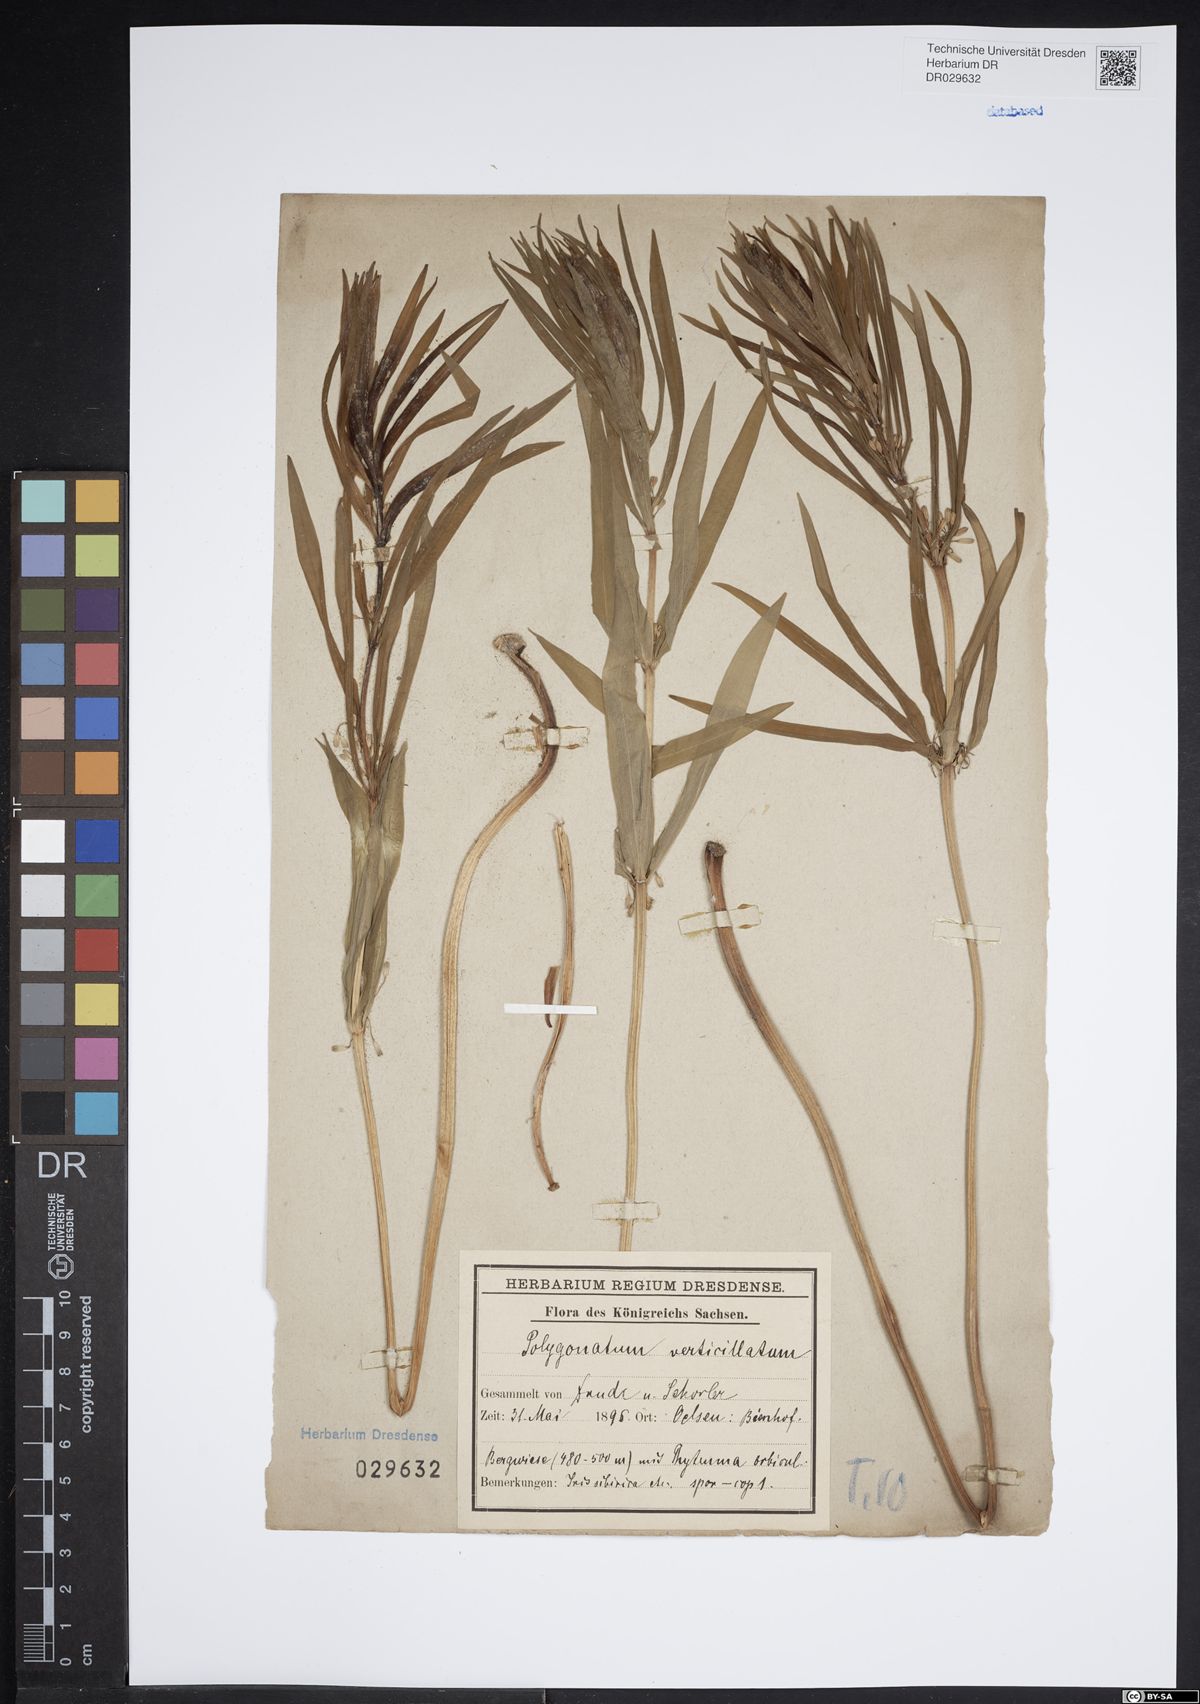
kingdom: Plantae
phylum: Tracheophyta
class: Liliopsida
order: Asparagales
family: Asparagaceae
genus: Polygonatum
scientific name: Polygonatum verticillatum
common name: Whorled solomon's-seal
